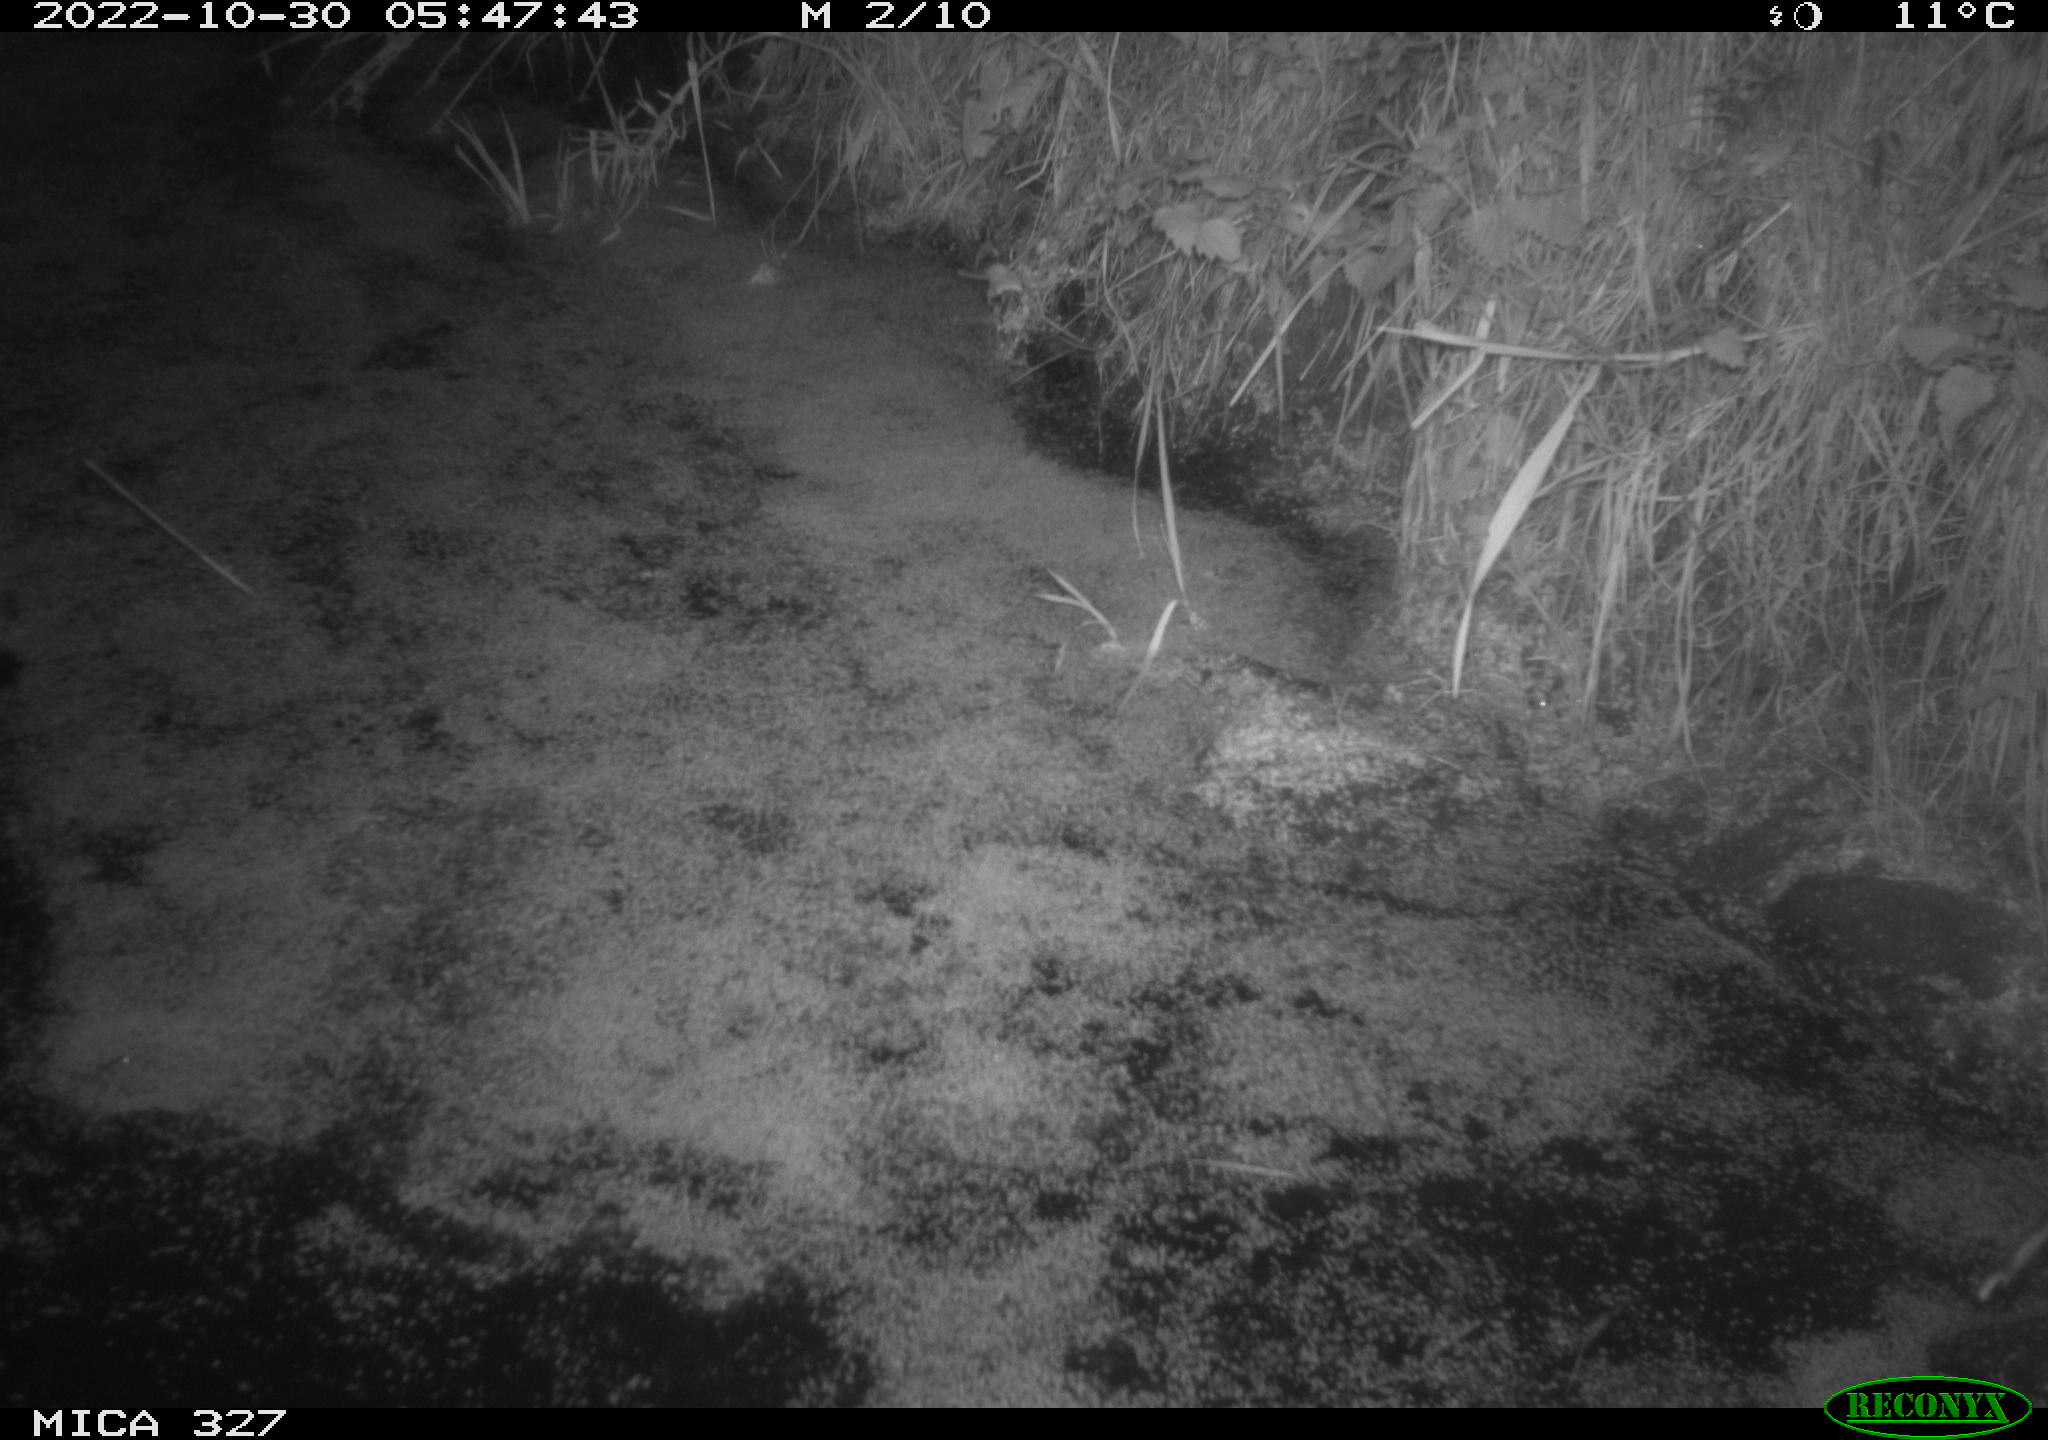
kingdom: Animalia
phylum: Chordata
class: Mammalia
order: Rodentia
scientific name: Rodentia
